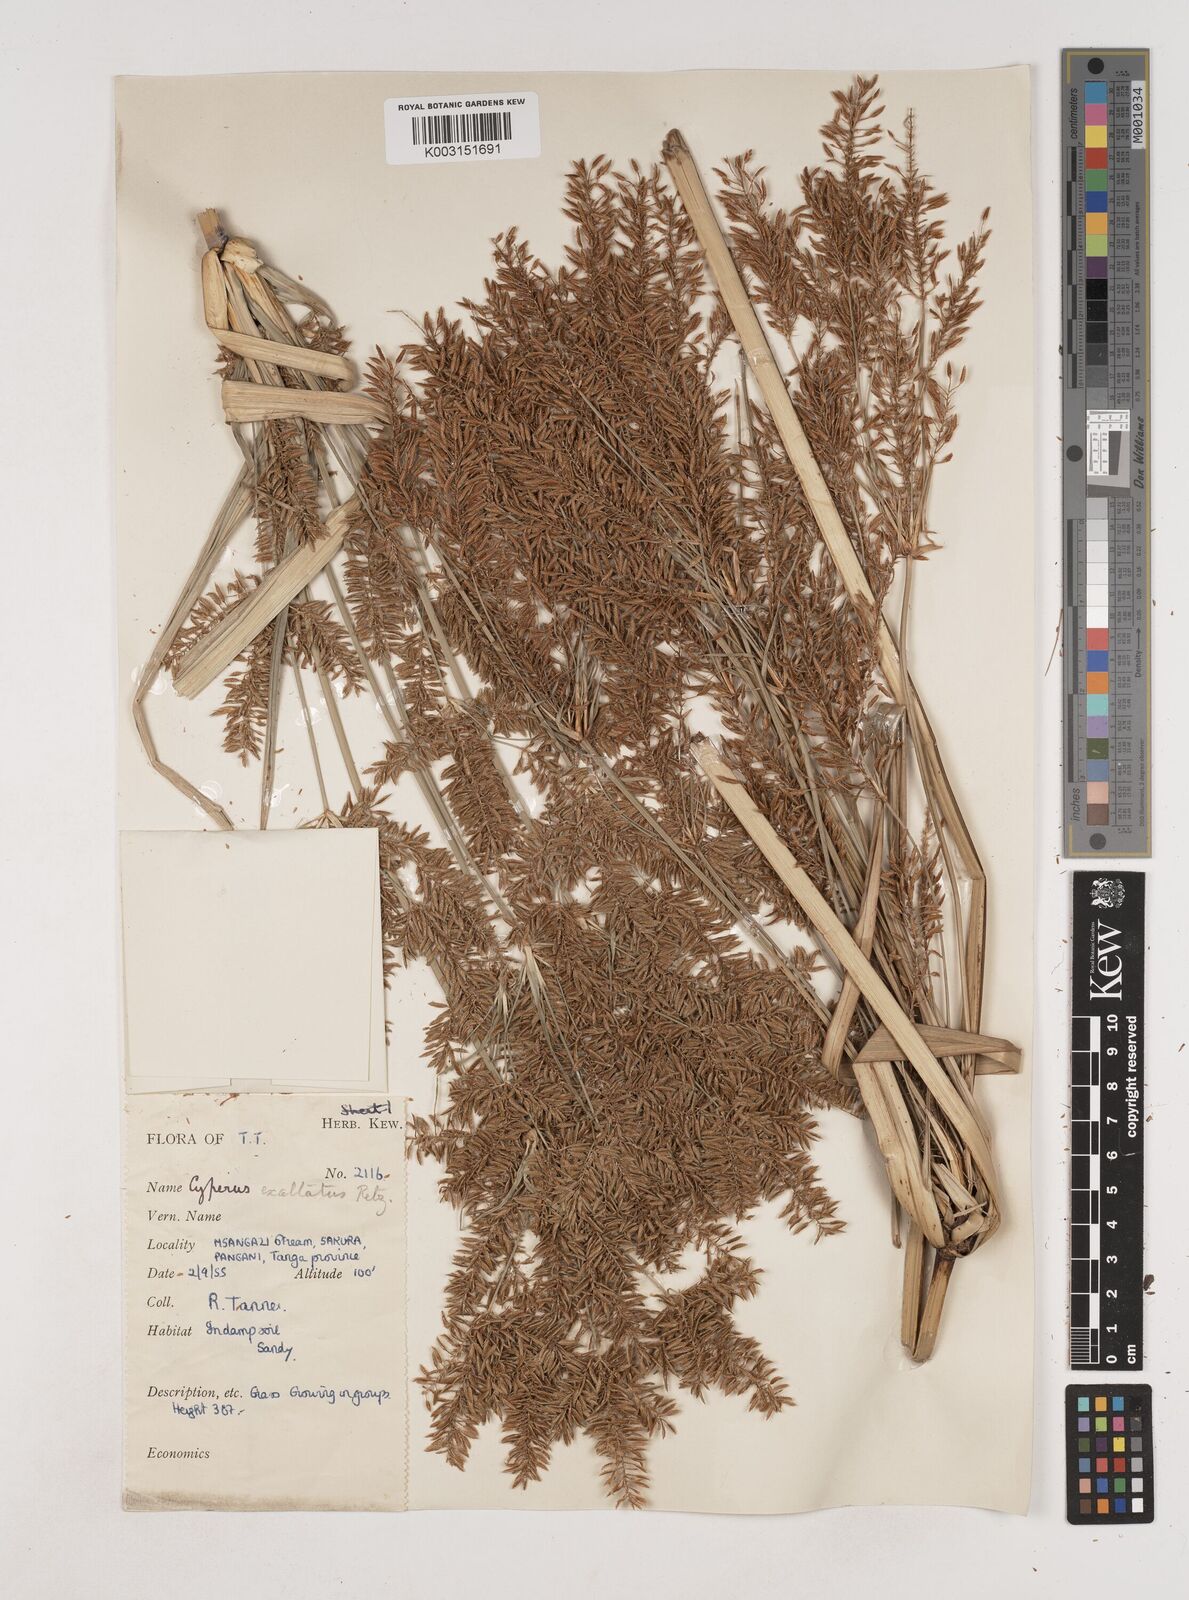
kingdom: Plantae
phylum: Tracheophyta
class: Liliopsida
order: Poales
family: Cyperaceae
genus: Cyperus
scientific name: Cyperus exaltatus
